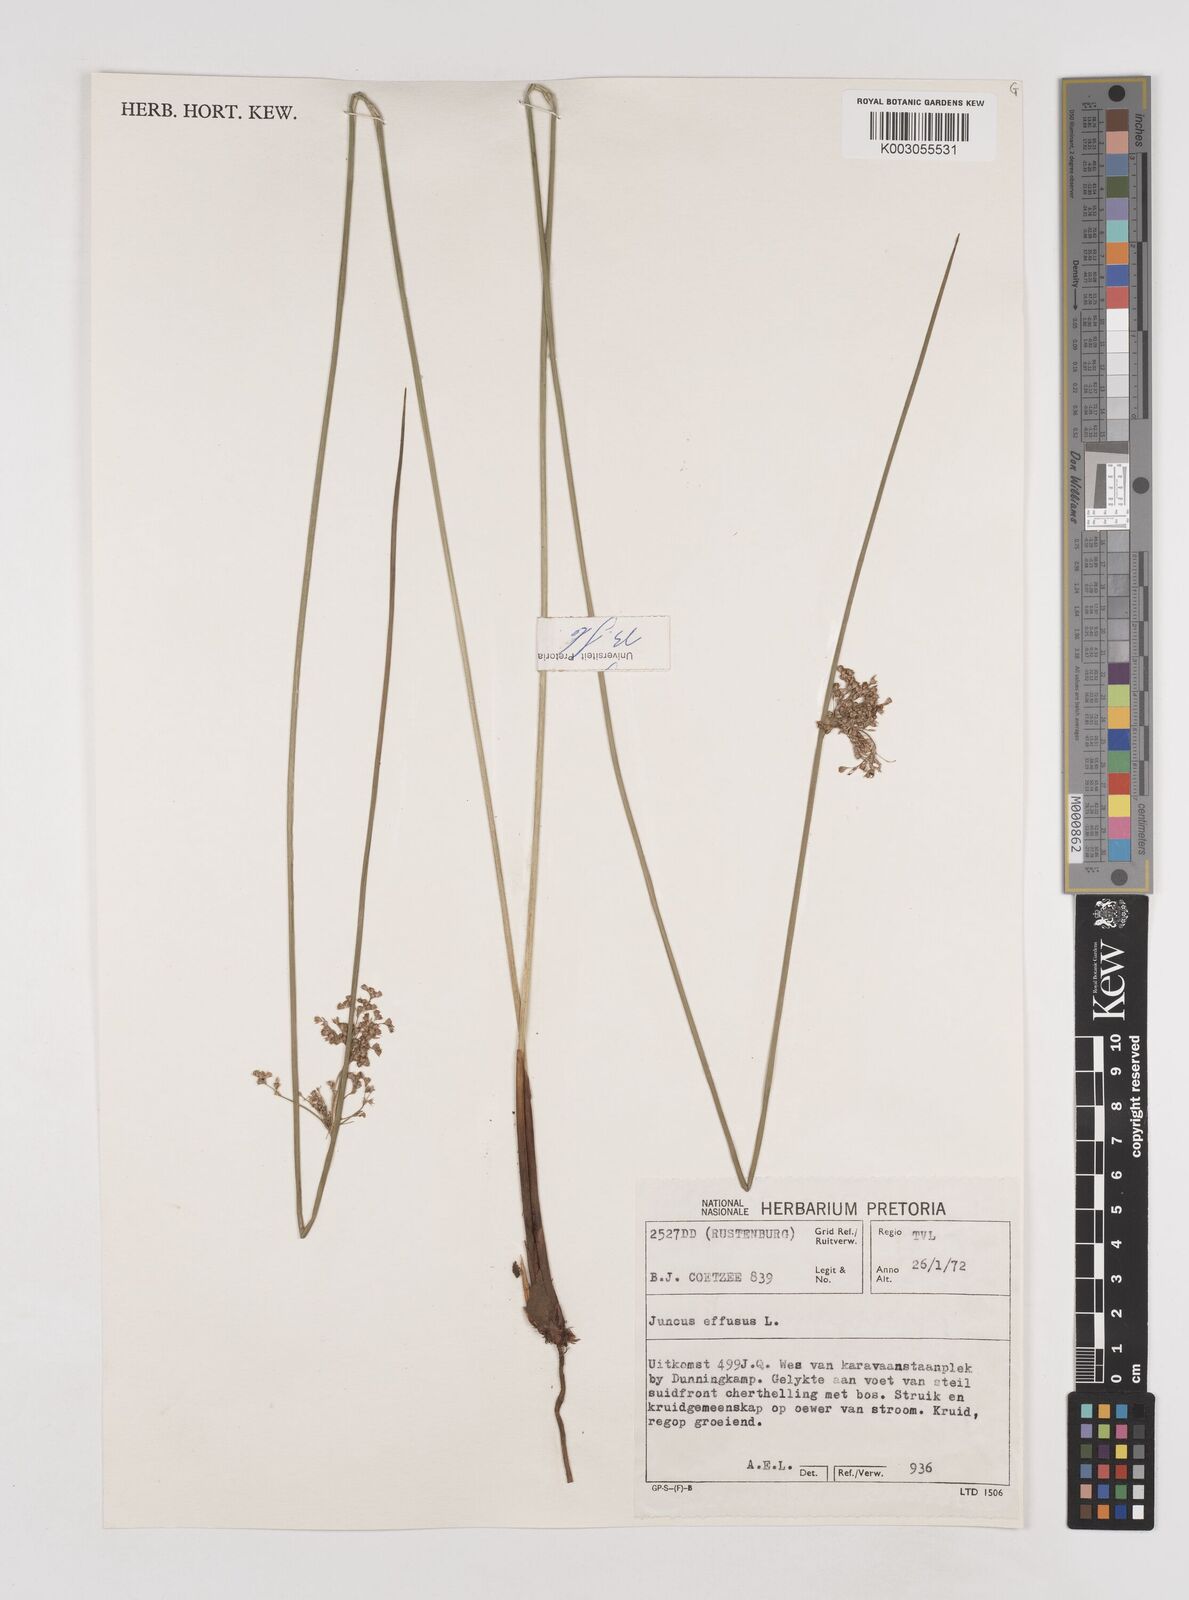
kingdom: Plantae
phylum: Tracheophyta
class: Liliopsida
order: Poales
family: Juncaceae
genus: Juncus
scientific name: Juncus effusus
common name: Soft rush
